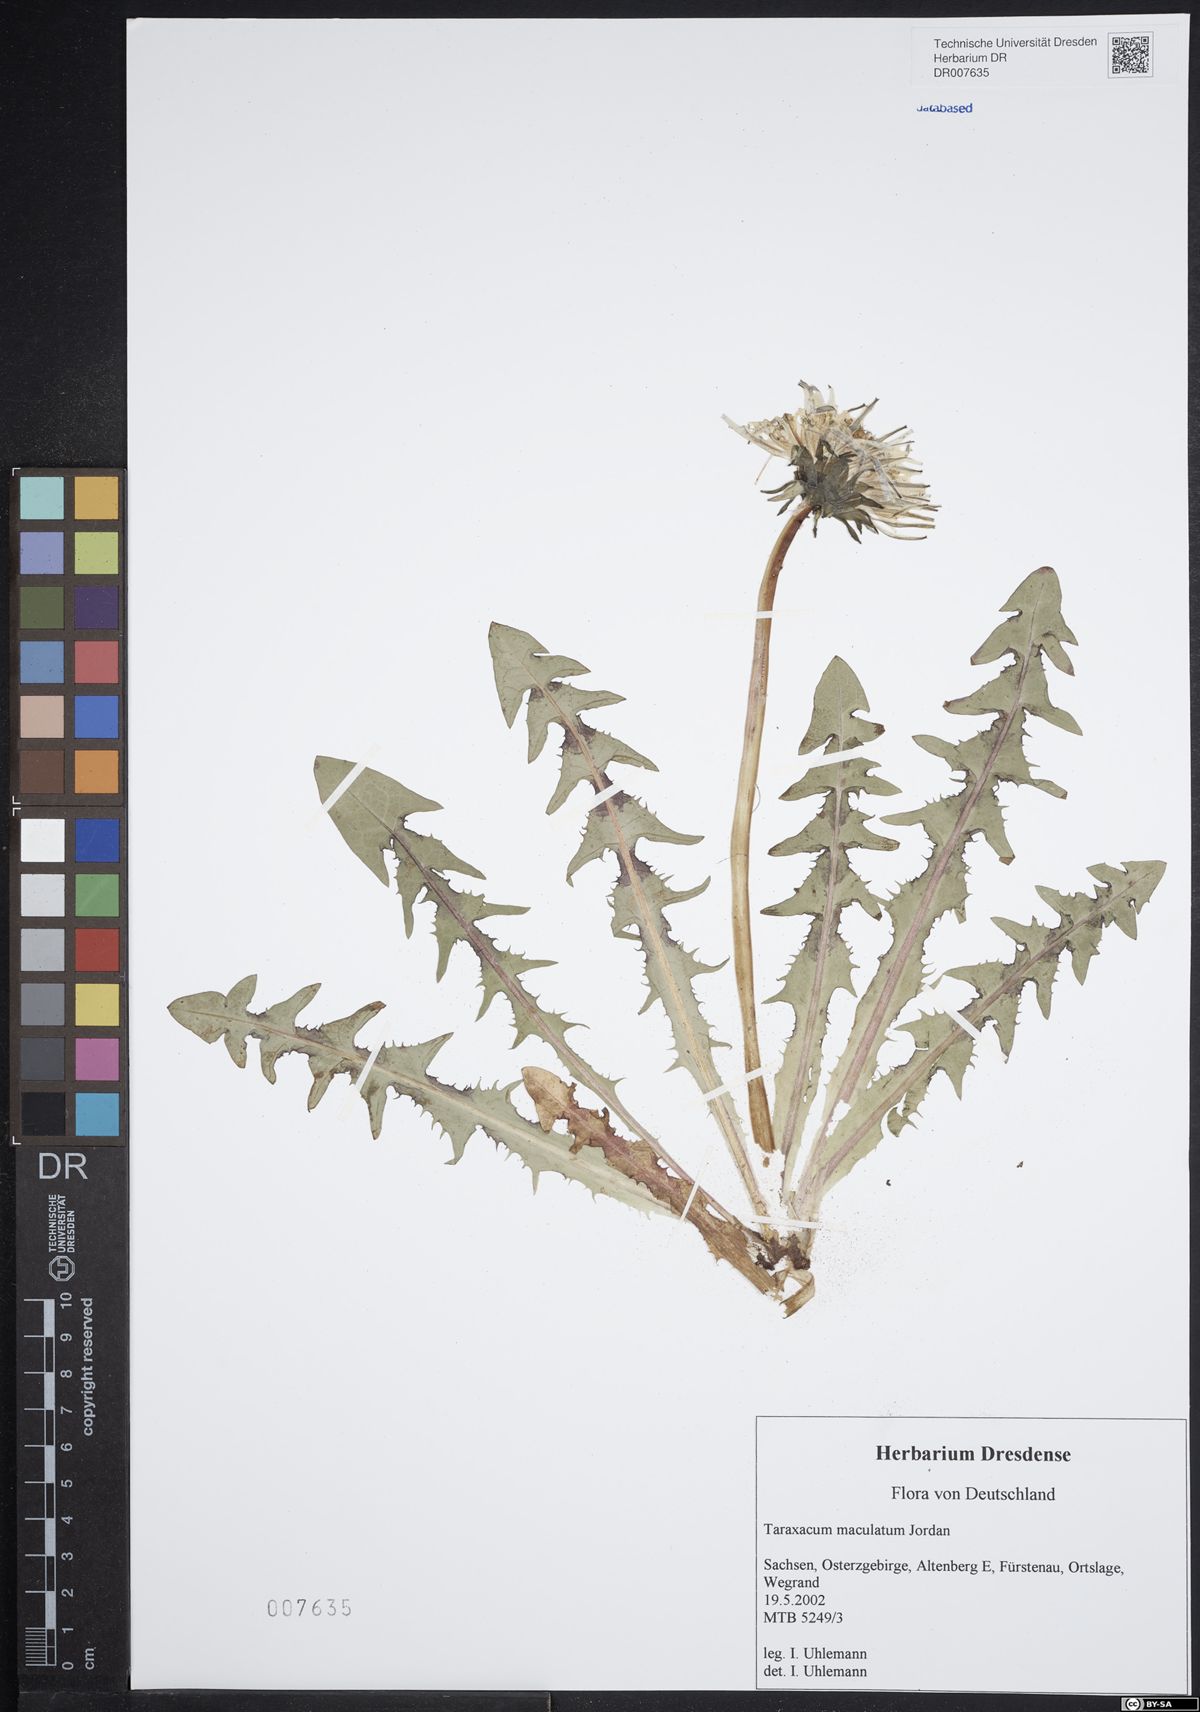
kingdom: Plantae
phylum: Tracheophyta
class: Magnoliopsida
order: Asterales
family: Asteraceae
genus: Taraxacum
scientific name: Taraxacum maculatum
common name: Yellowish-green dandelion
